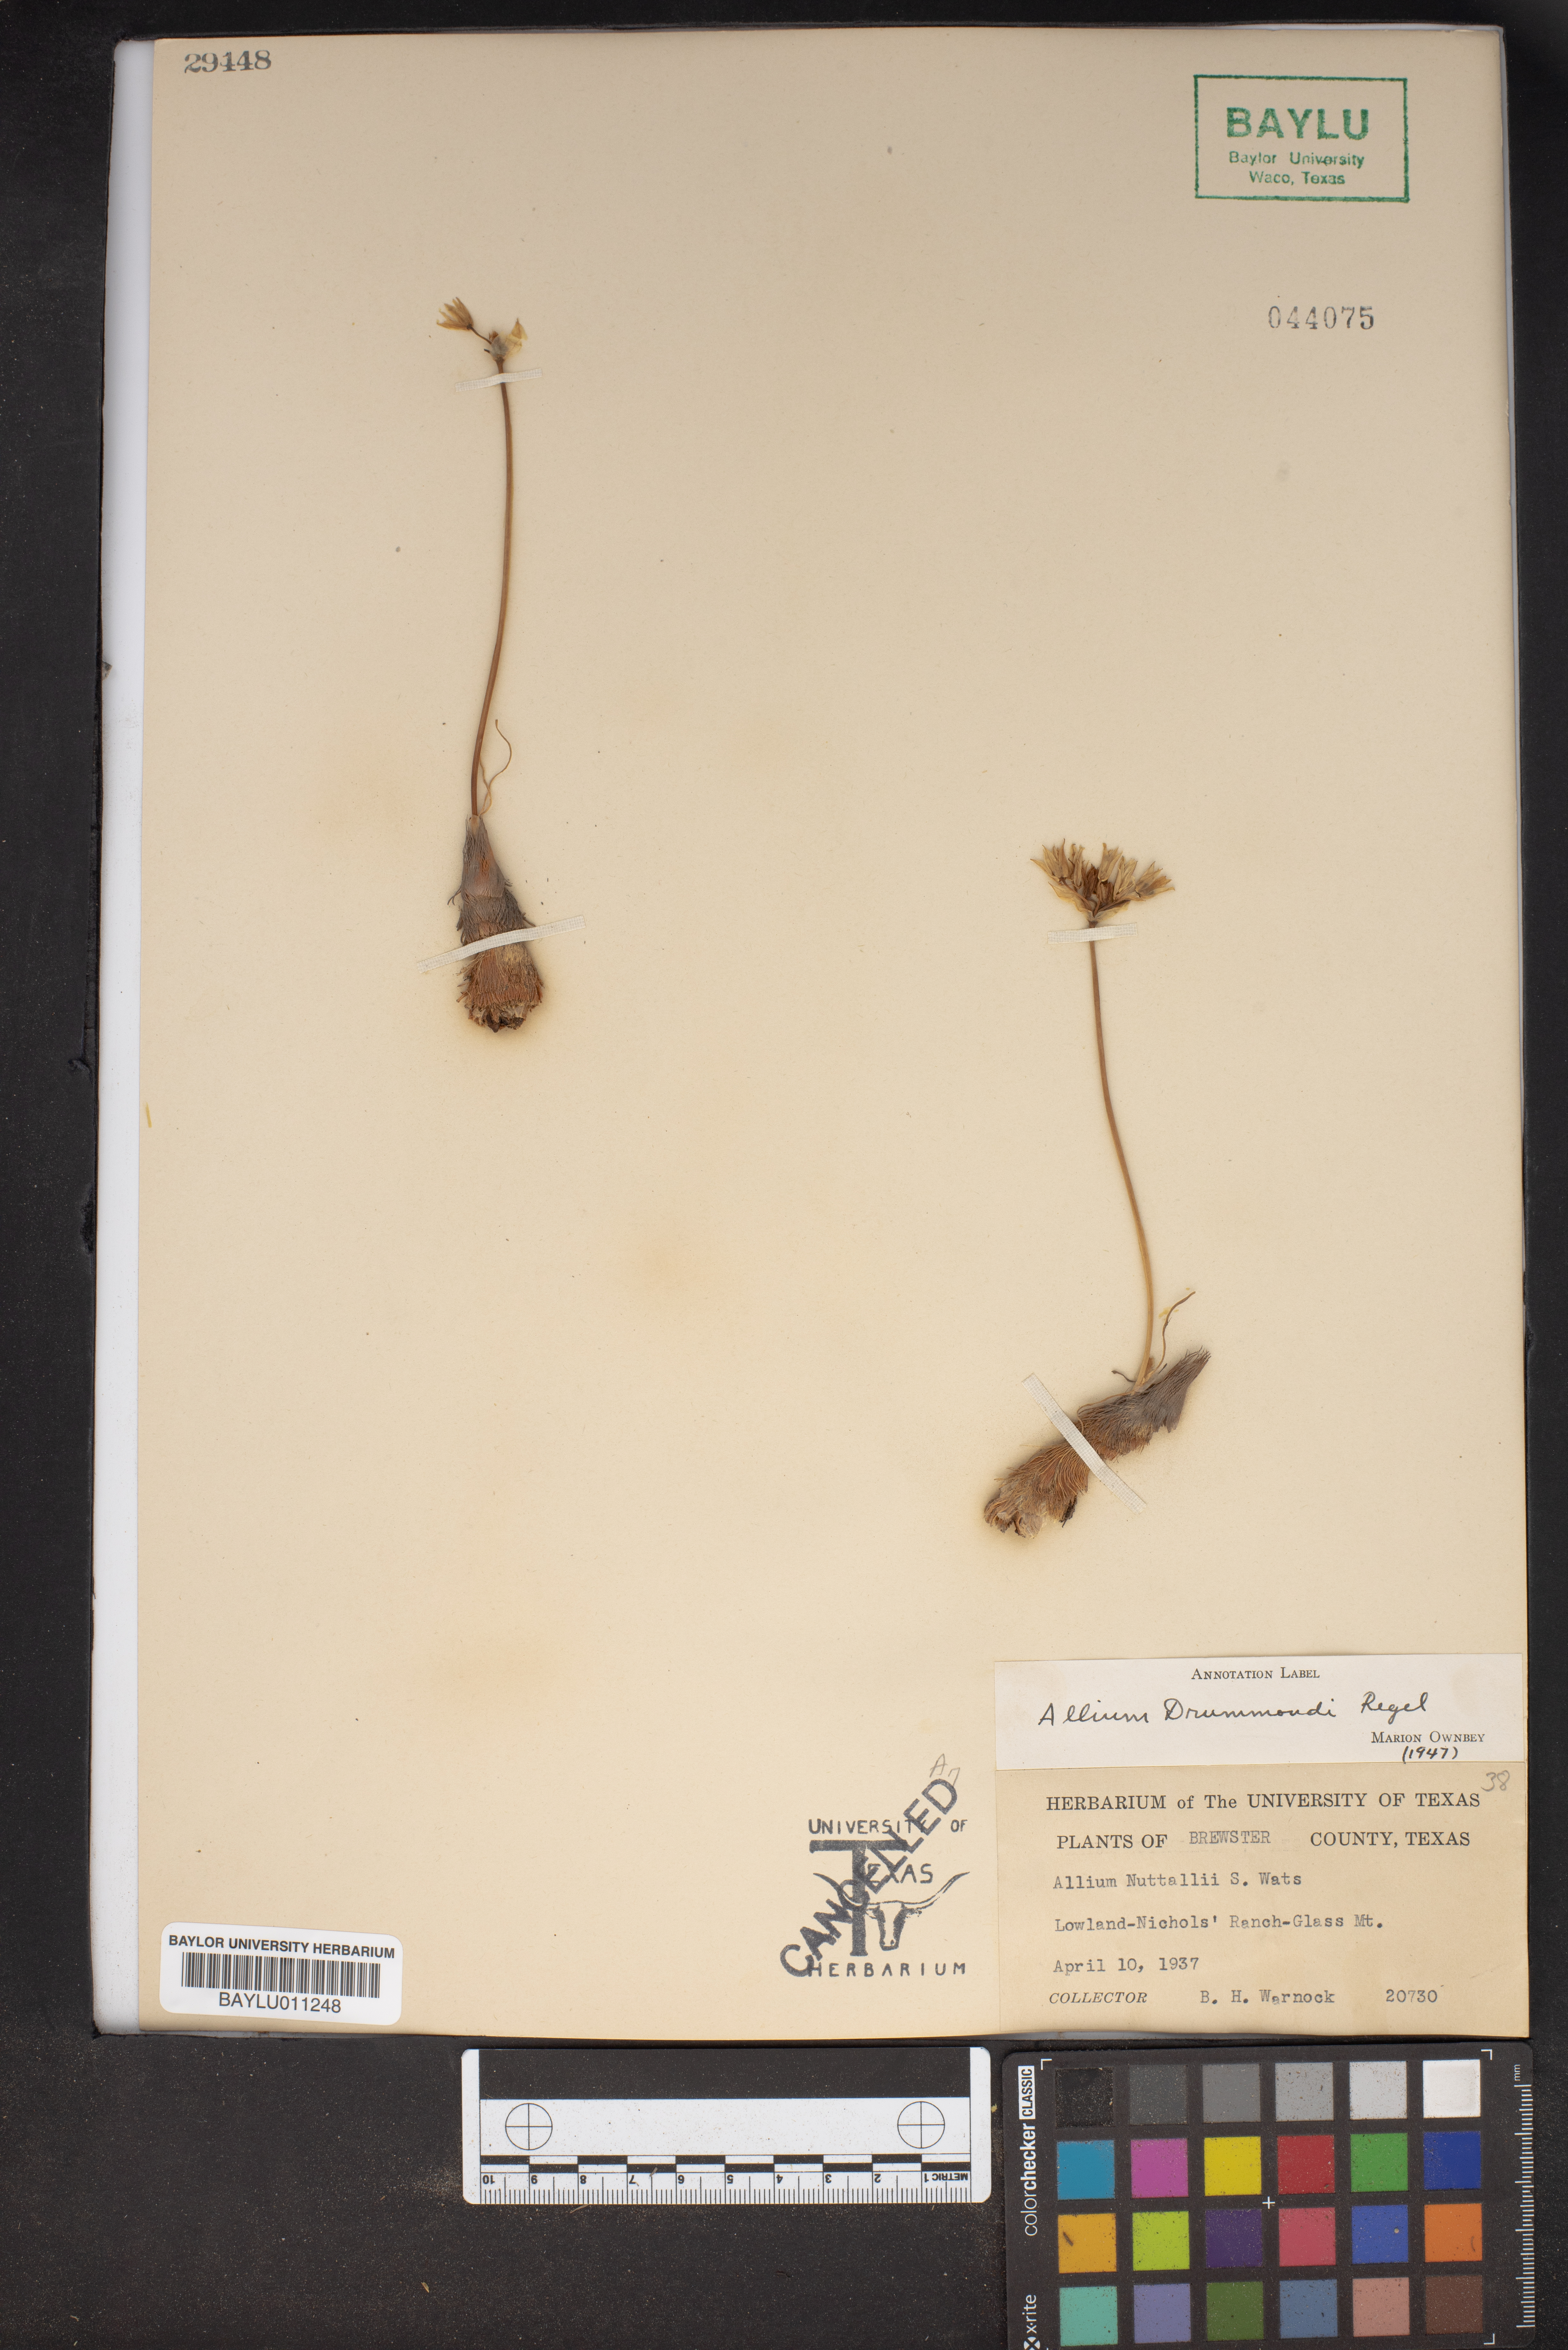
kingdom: Plantae
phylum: Tracheophyta
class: Liliopsida
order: Asparagales
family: Amaryllidaceae
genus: Allium
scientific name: Allium drummondii
